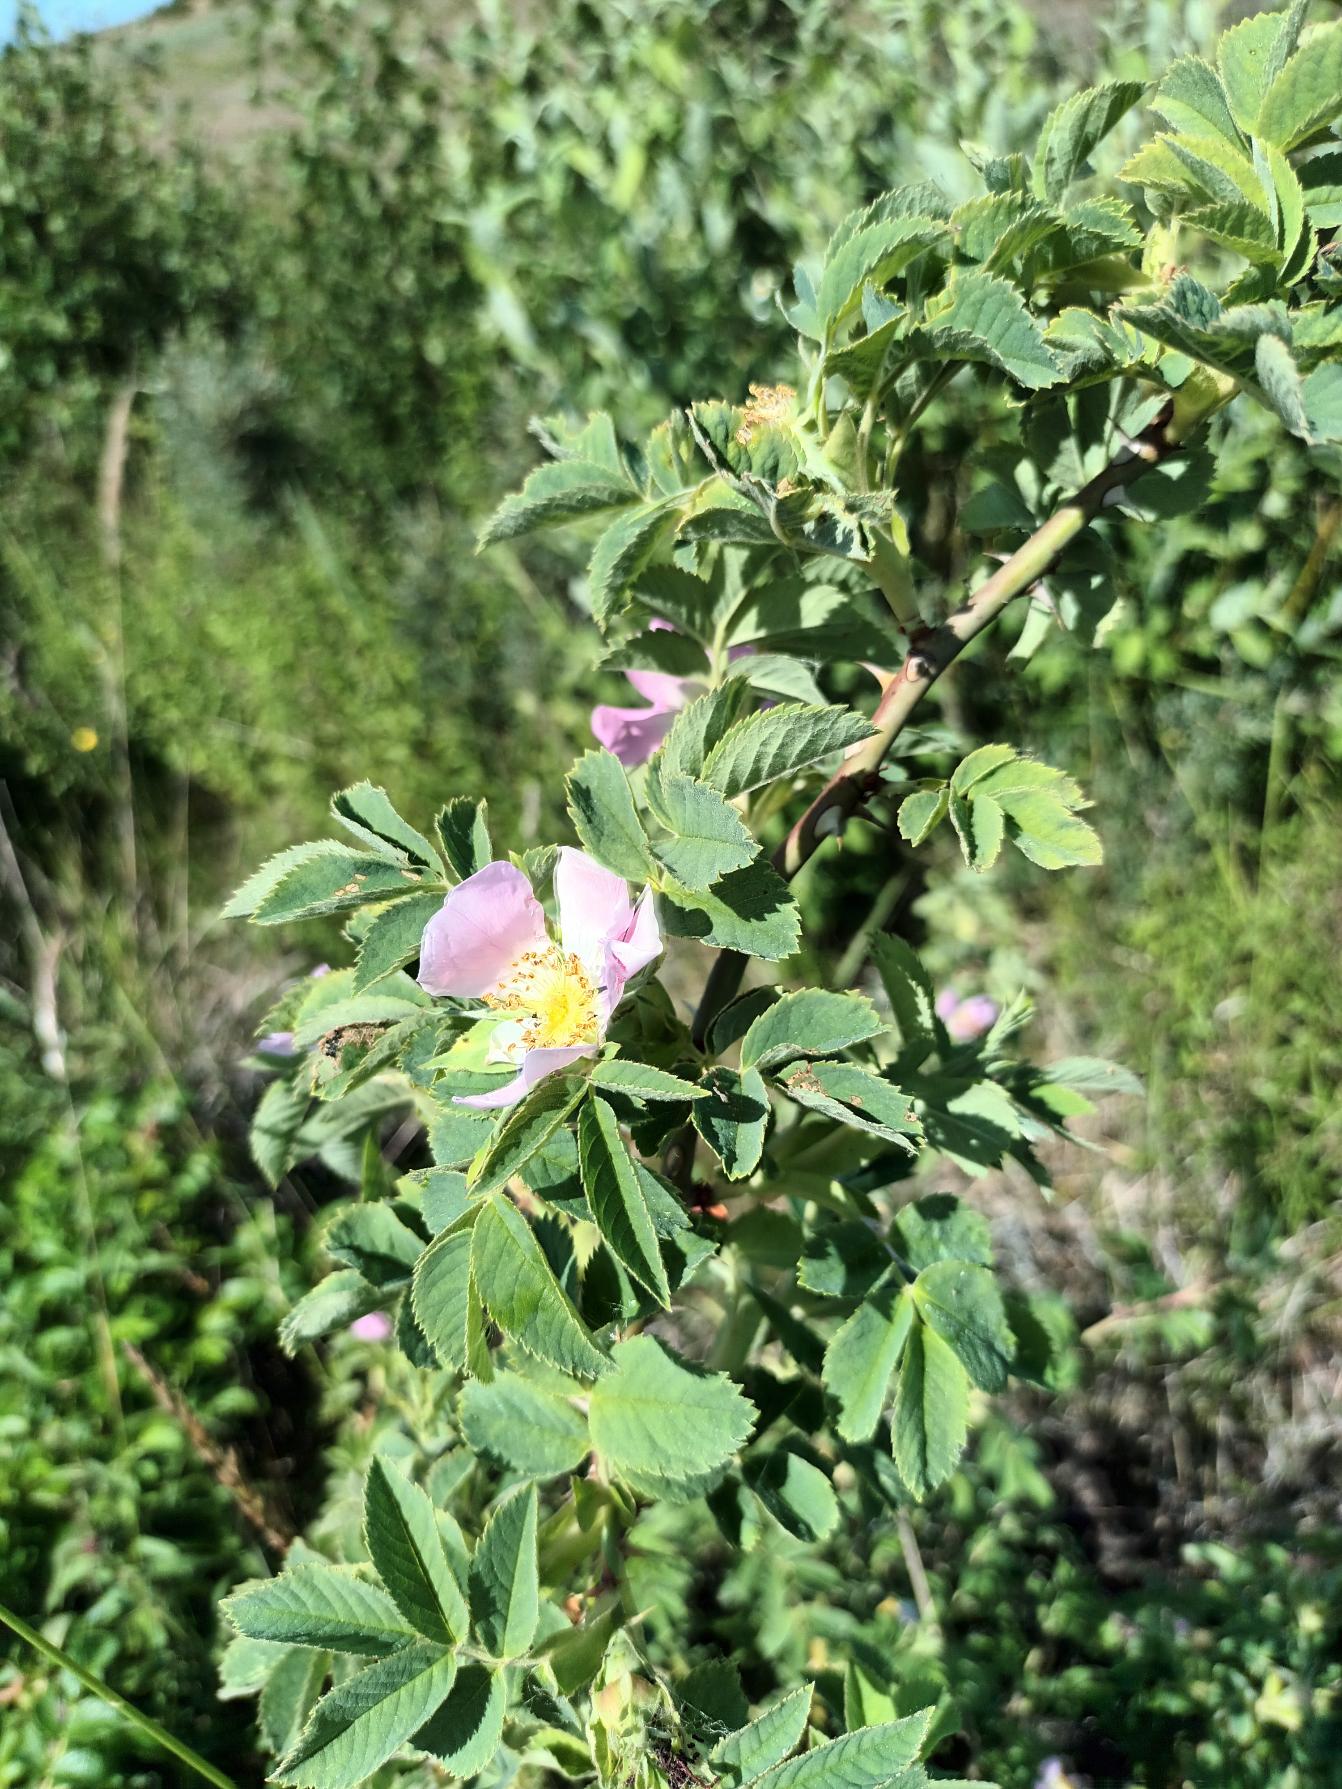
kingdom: Plantae
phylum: Tracheophyta
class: Magnoliopsida
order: Rosales
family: Rosaceae
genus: Rosa
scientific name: Rosa mollis
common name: Blød filt-rose
